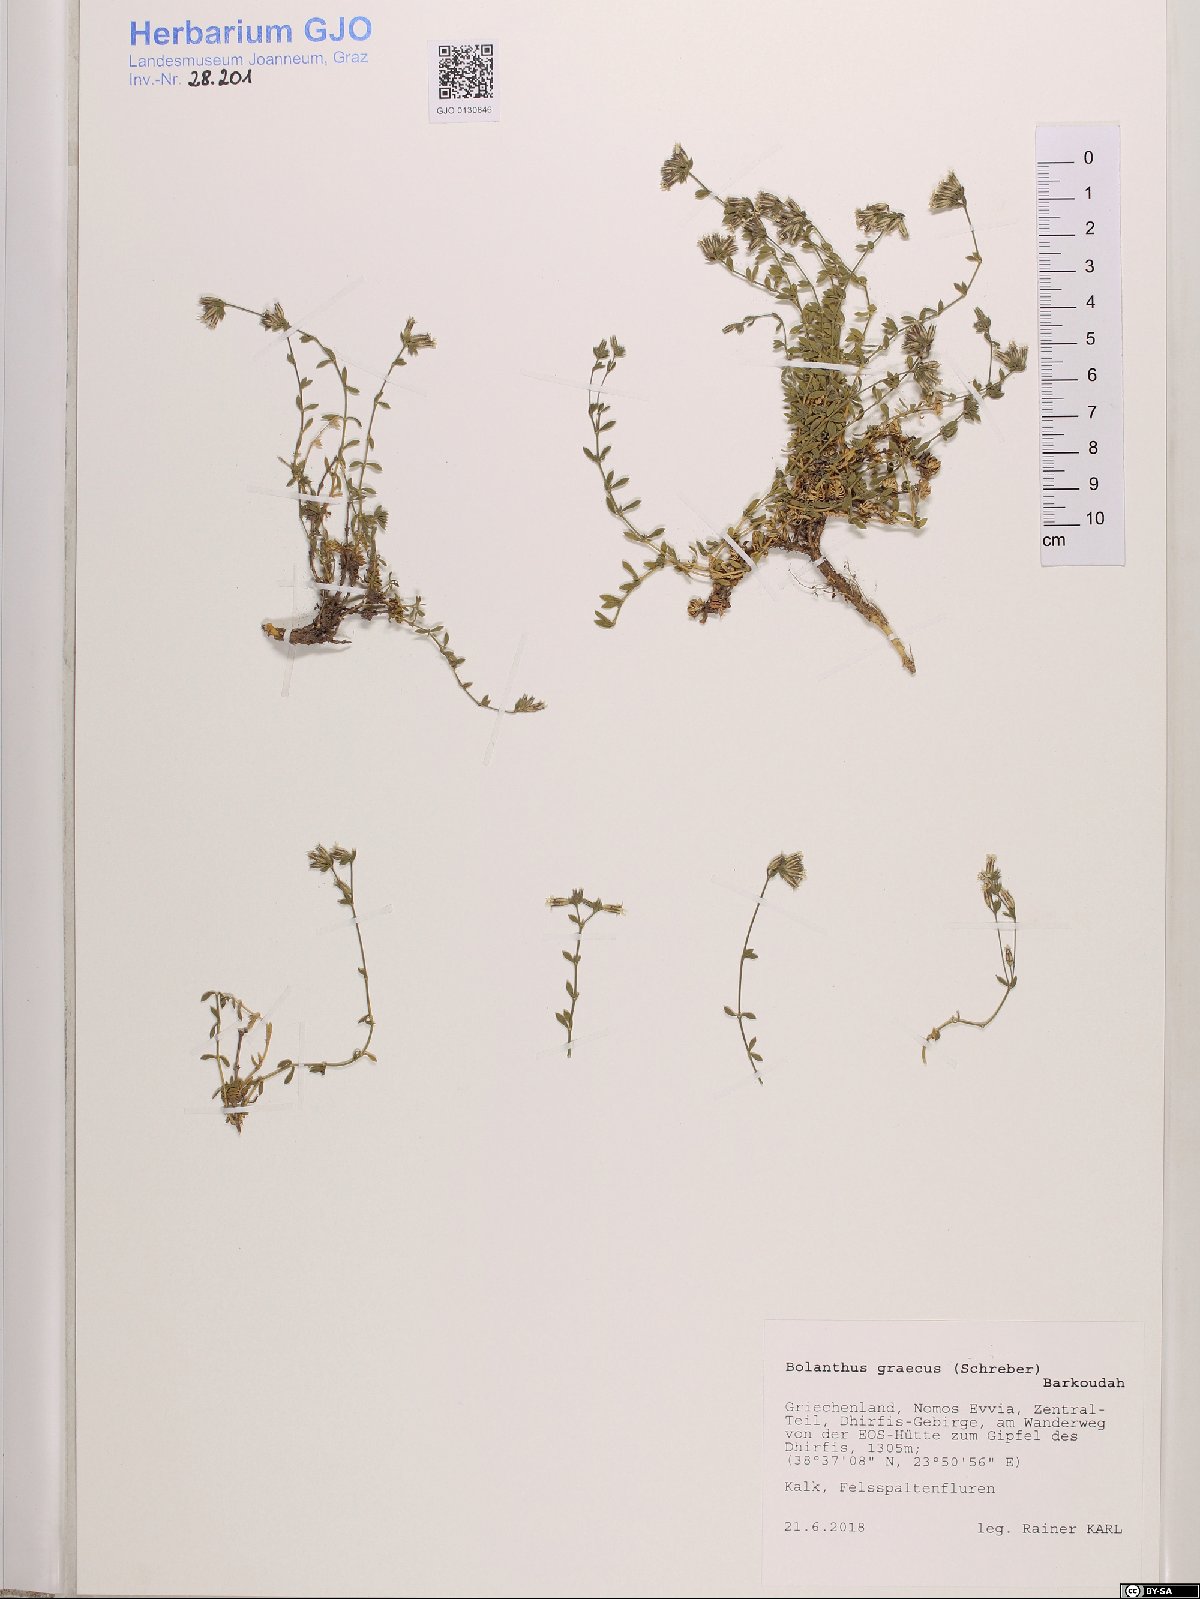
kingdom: Plantae
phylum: Tracheophyta
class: Magnoliopsida
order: Caryophyllales
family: Caryophyllaceae
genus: Graecobolanthus
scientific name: Graecobolanthus graecus
